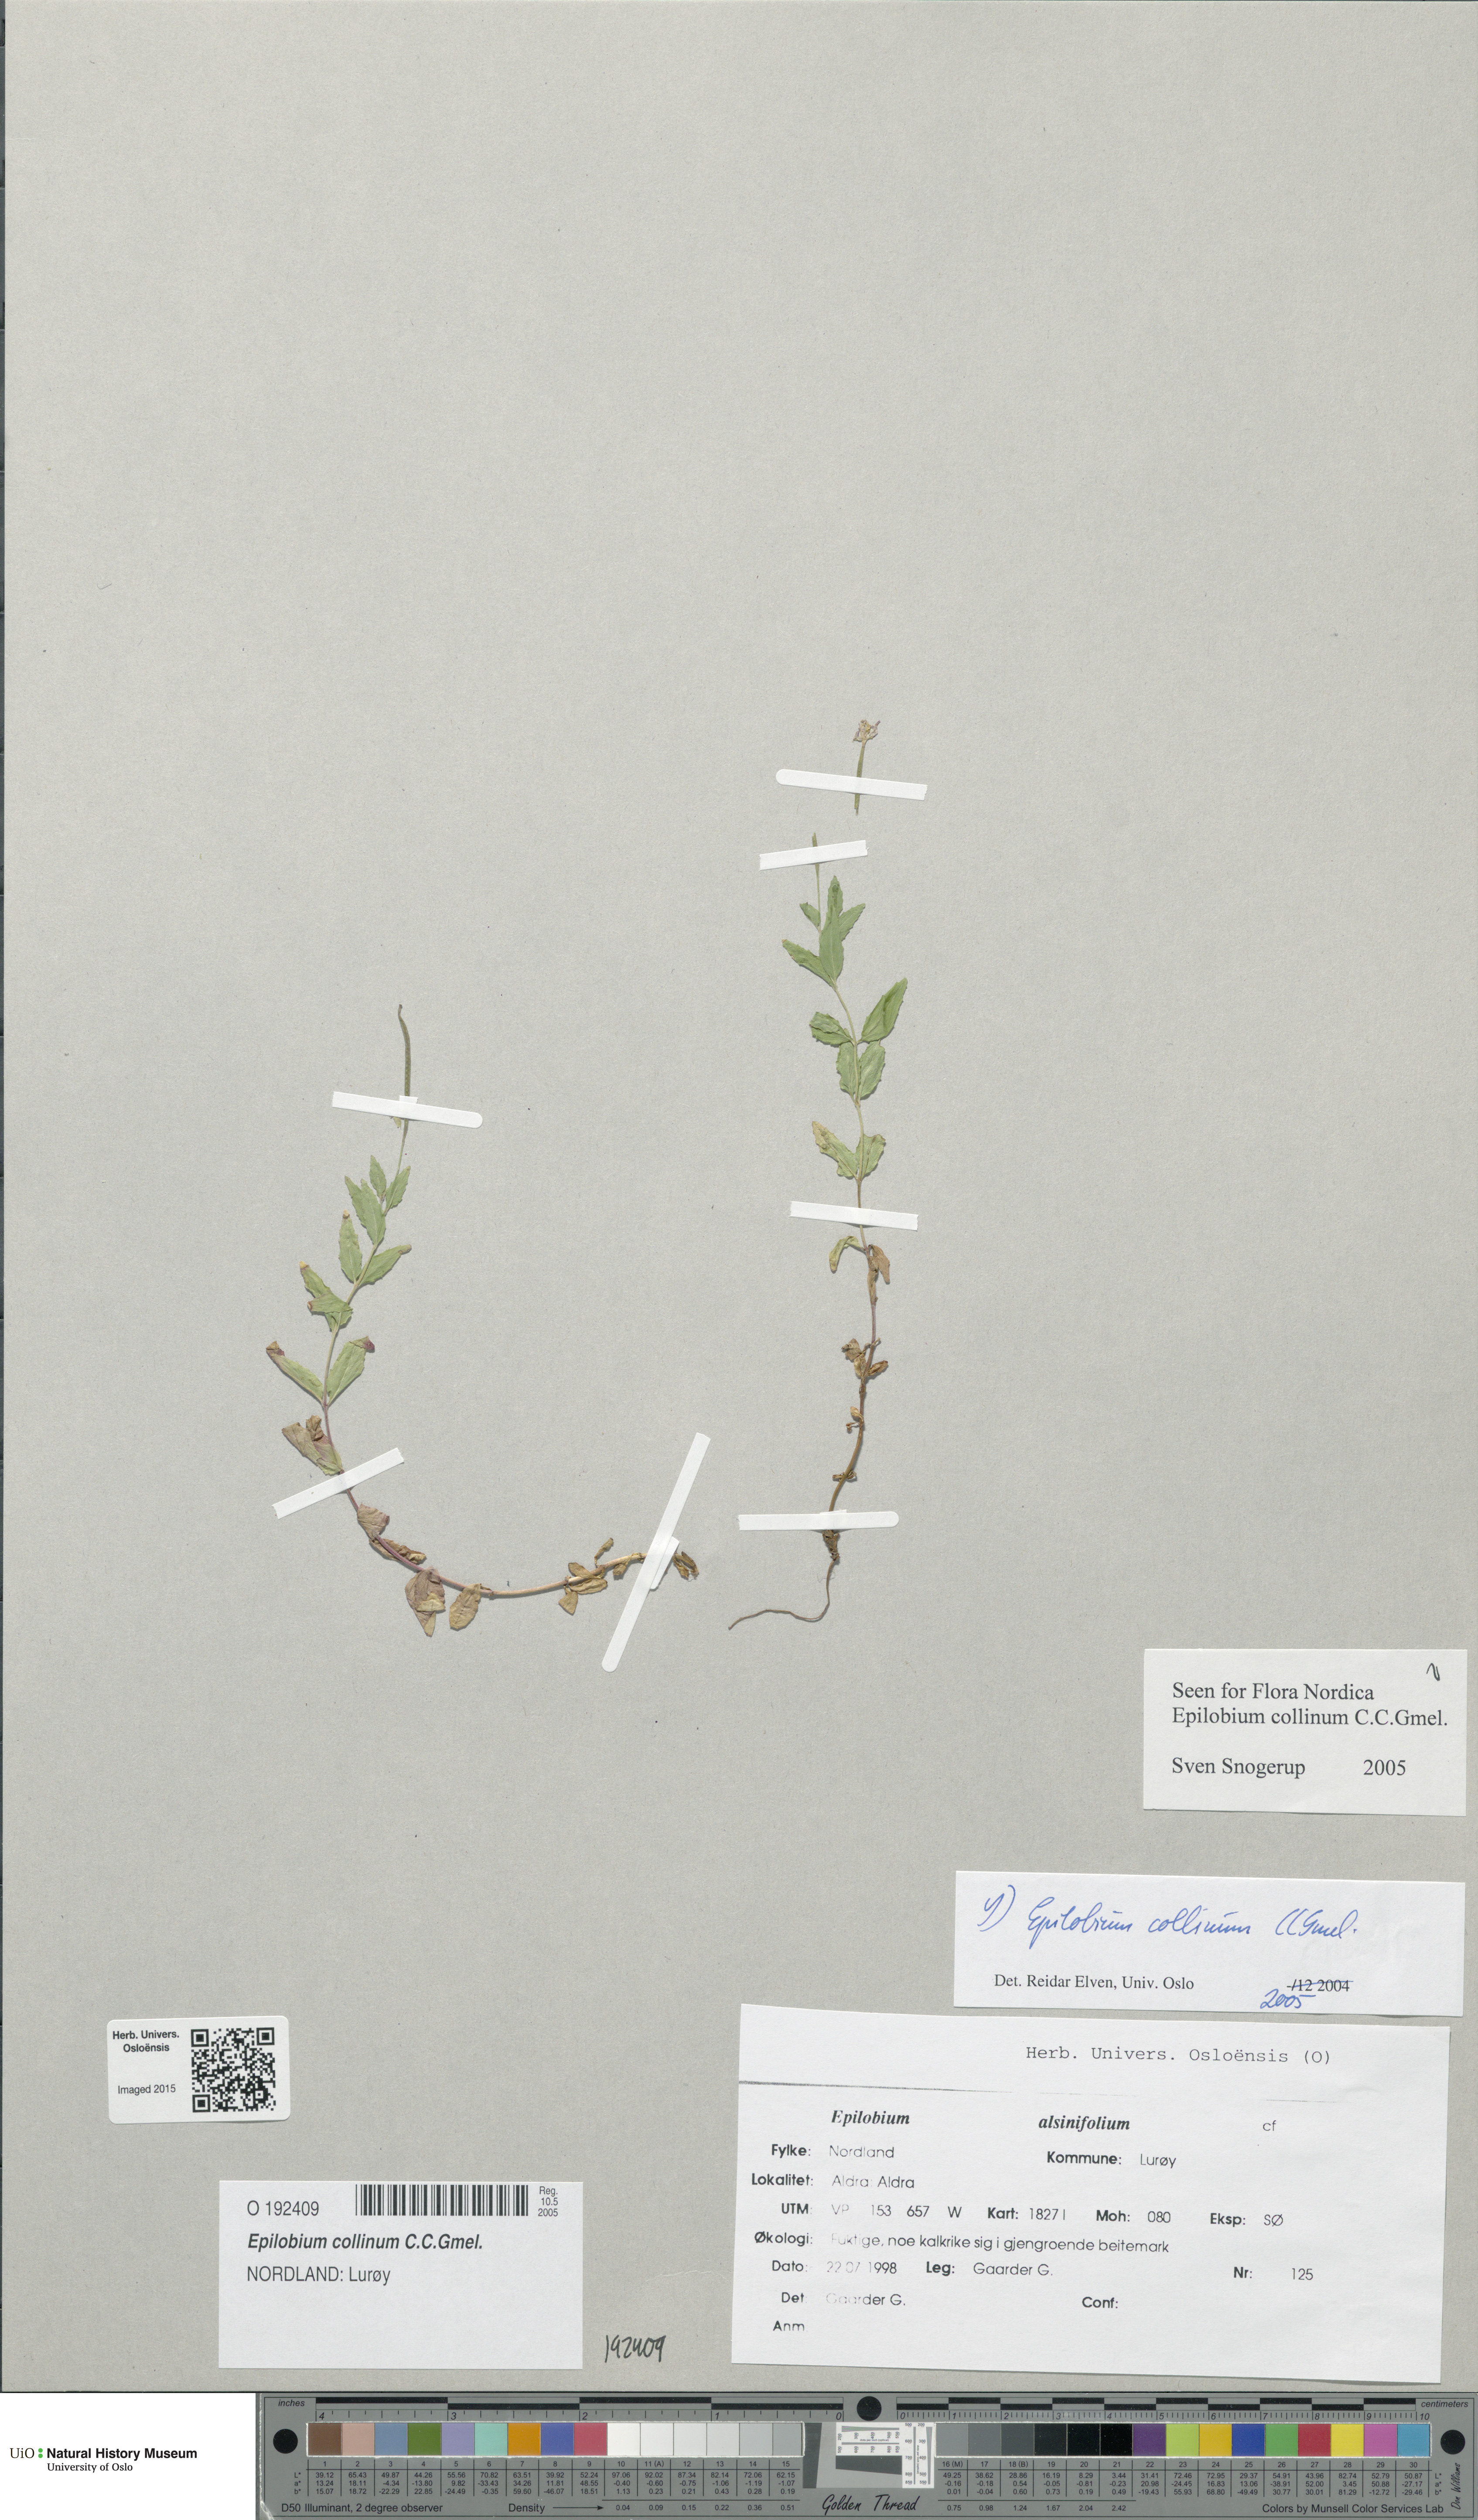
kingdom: Plantae
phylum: Tracheophyta
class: Magnoliopsida
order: Myrtales
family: Onagraceae
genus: Epilobium
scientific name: Epilobium collinum
